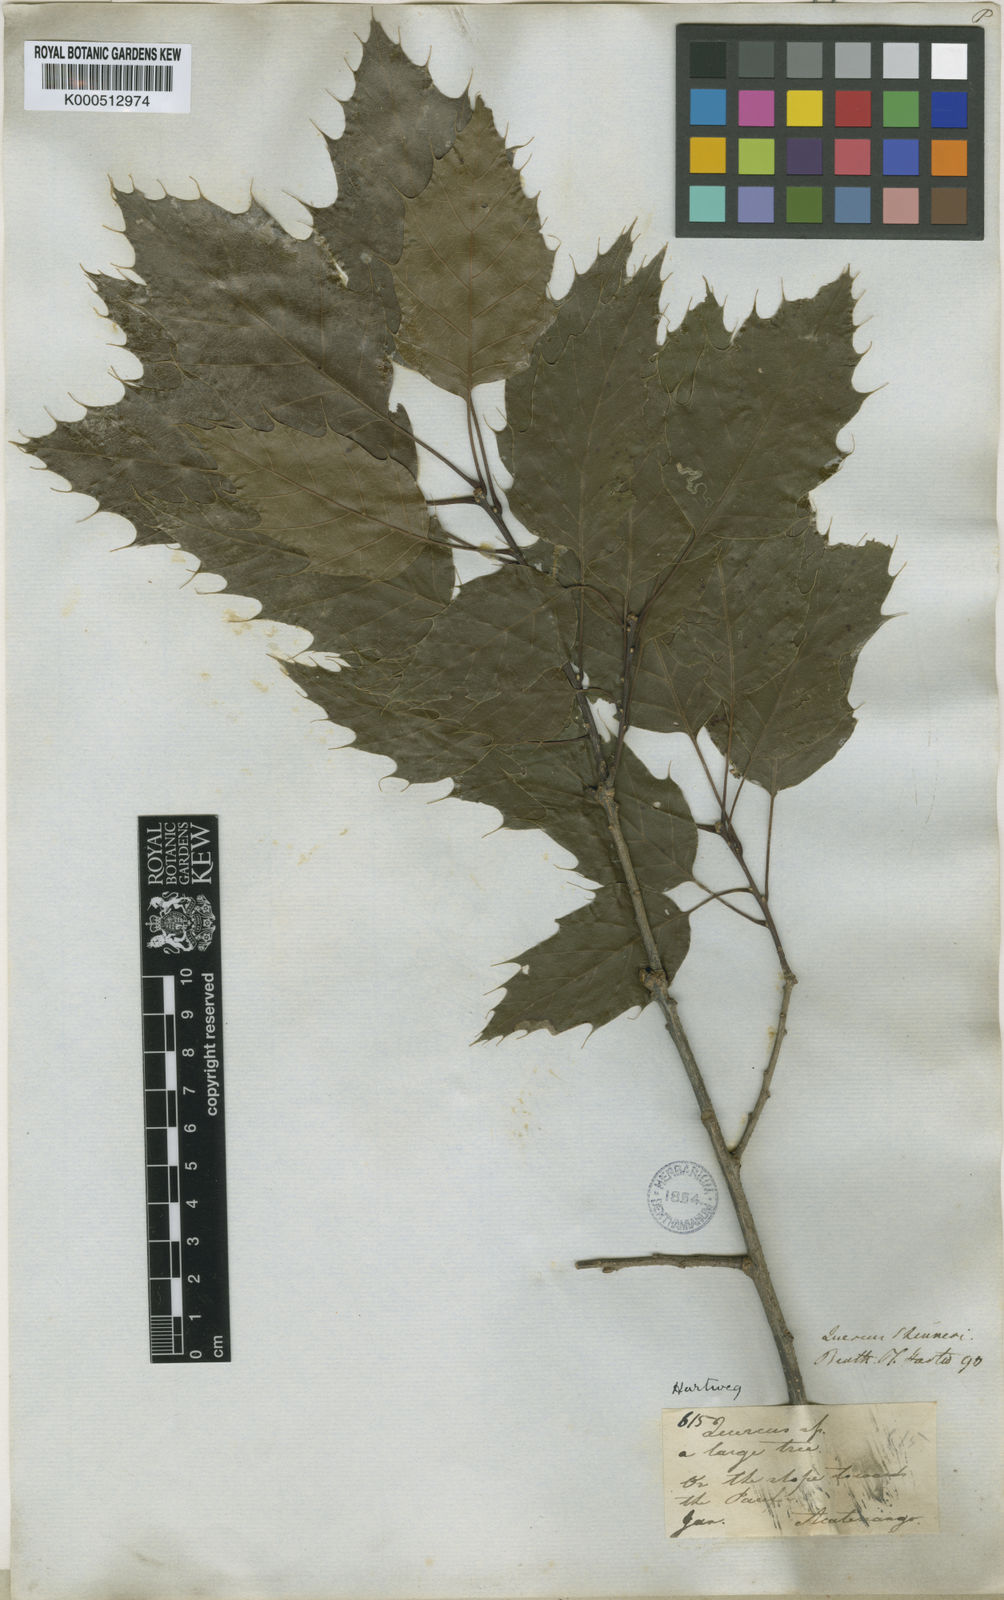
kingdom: Plantae
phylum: Tracheophyta
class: Magnoliopsida
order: Fagales
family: Fagaceae
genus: Quercus
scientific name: Quercus skinneri
